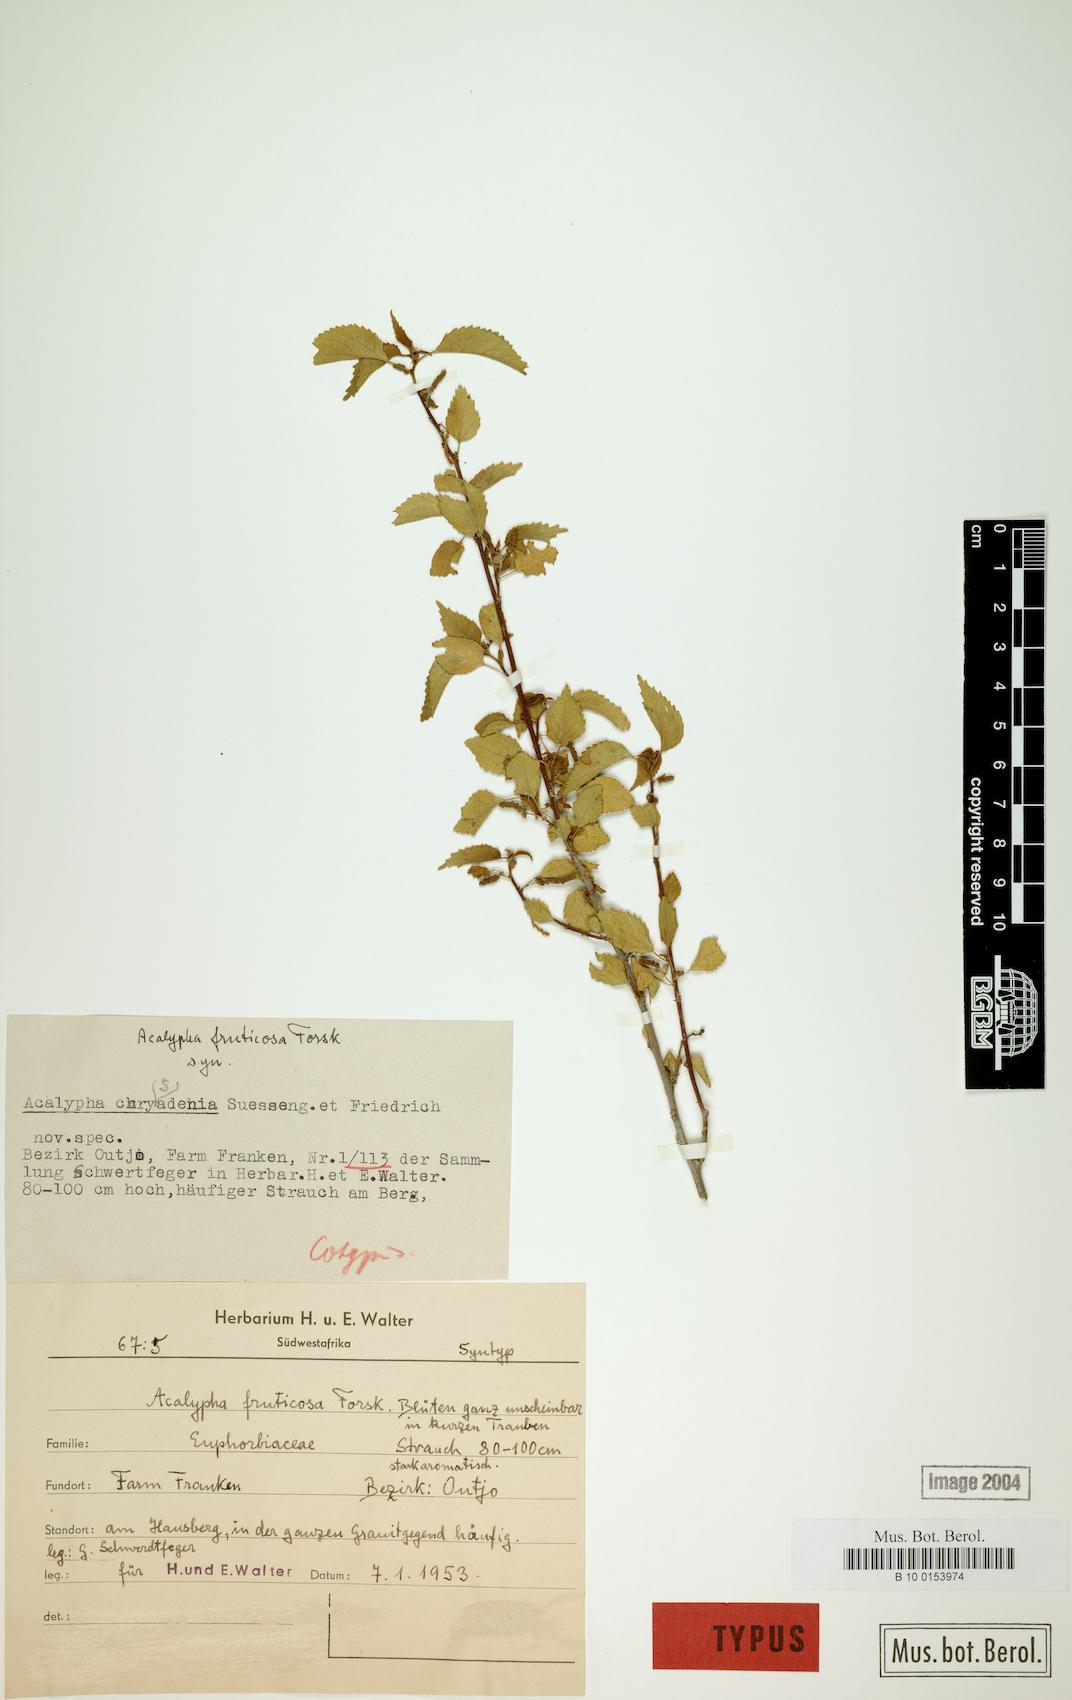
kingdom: Plantae
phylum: Tracheophyta
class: Magnoliopsida
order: Malpighiales
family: Euphorbiaceae
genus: Acalypha
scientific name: Acalypha fruticosa
